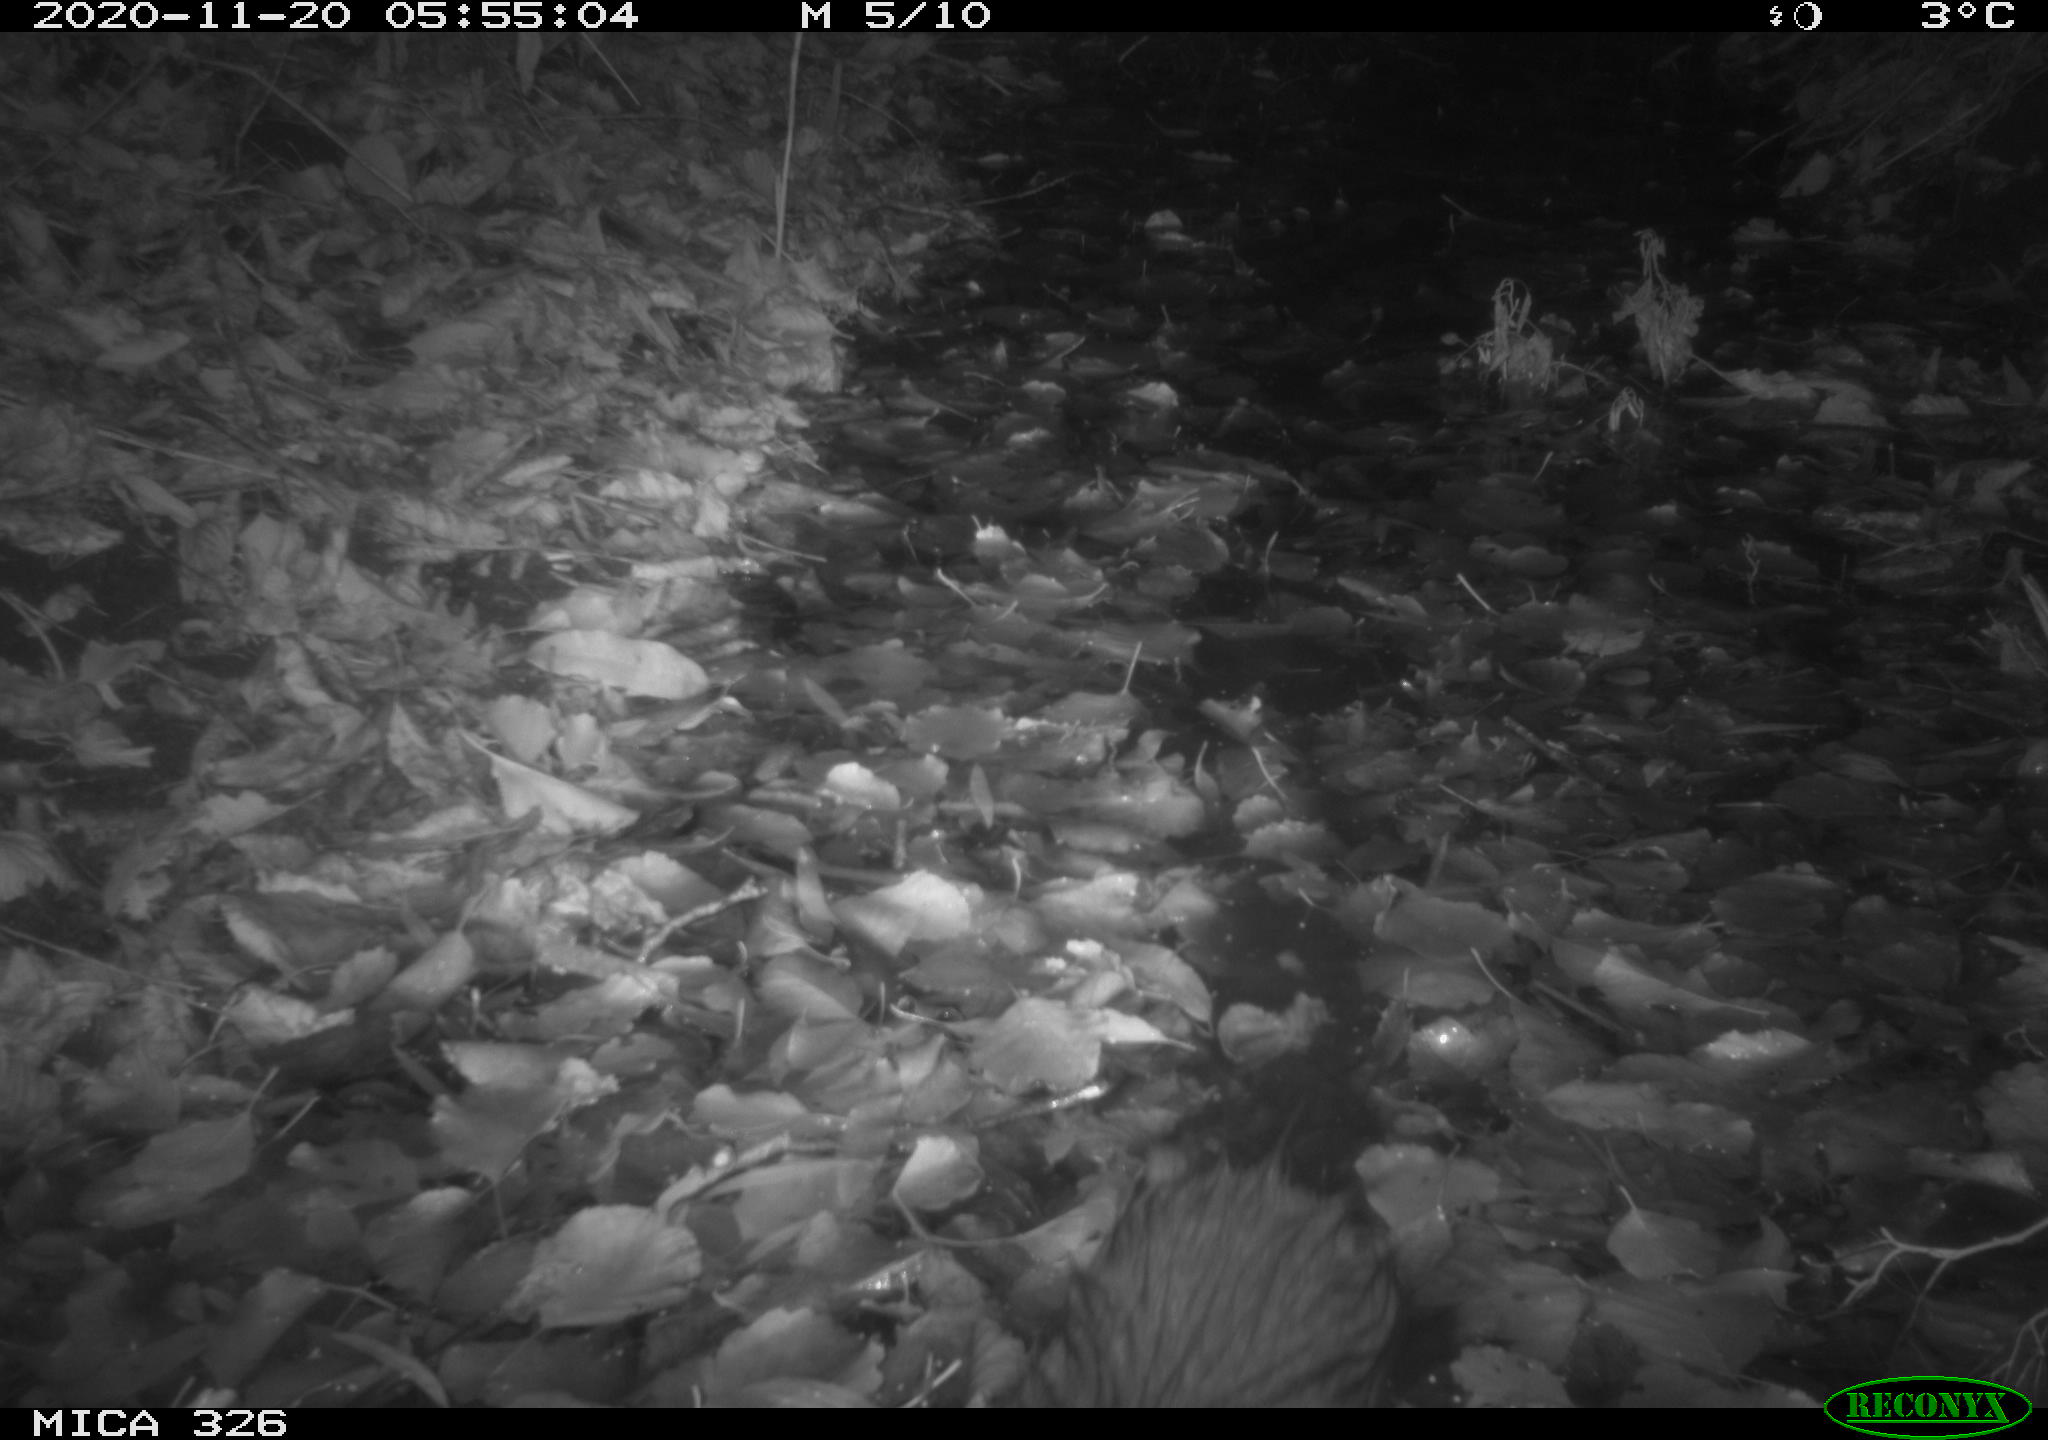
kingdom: Animalia
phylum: Chordata
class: Mammalia
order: Rodentia
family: Myocastoridae
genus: Myocastor
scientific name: Myocastor coypus
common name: Coypu
